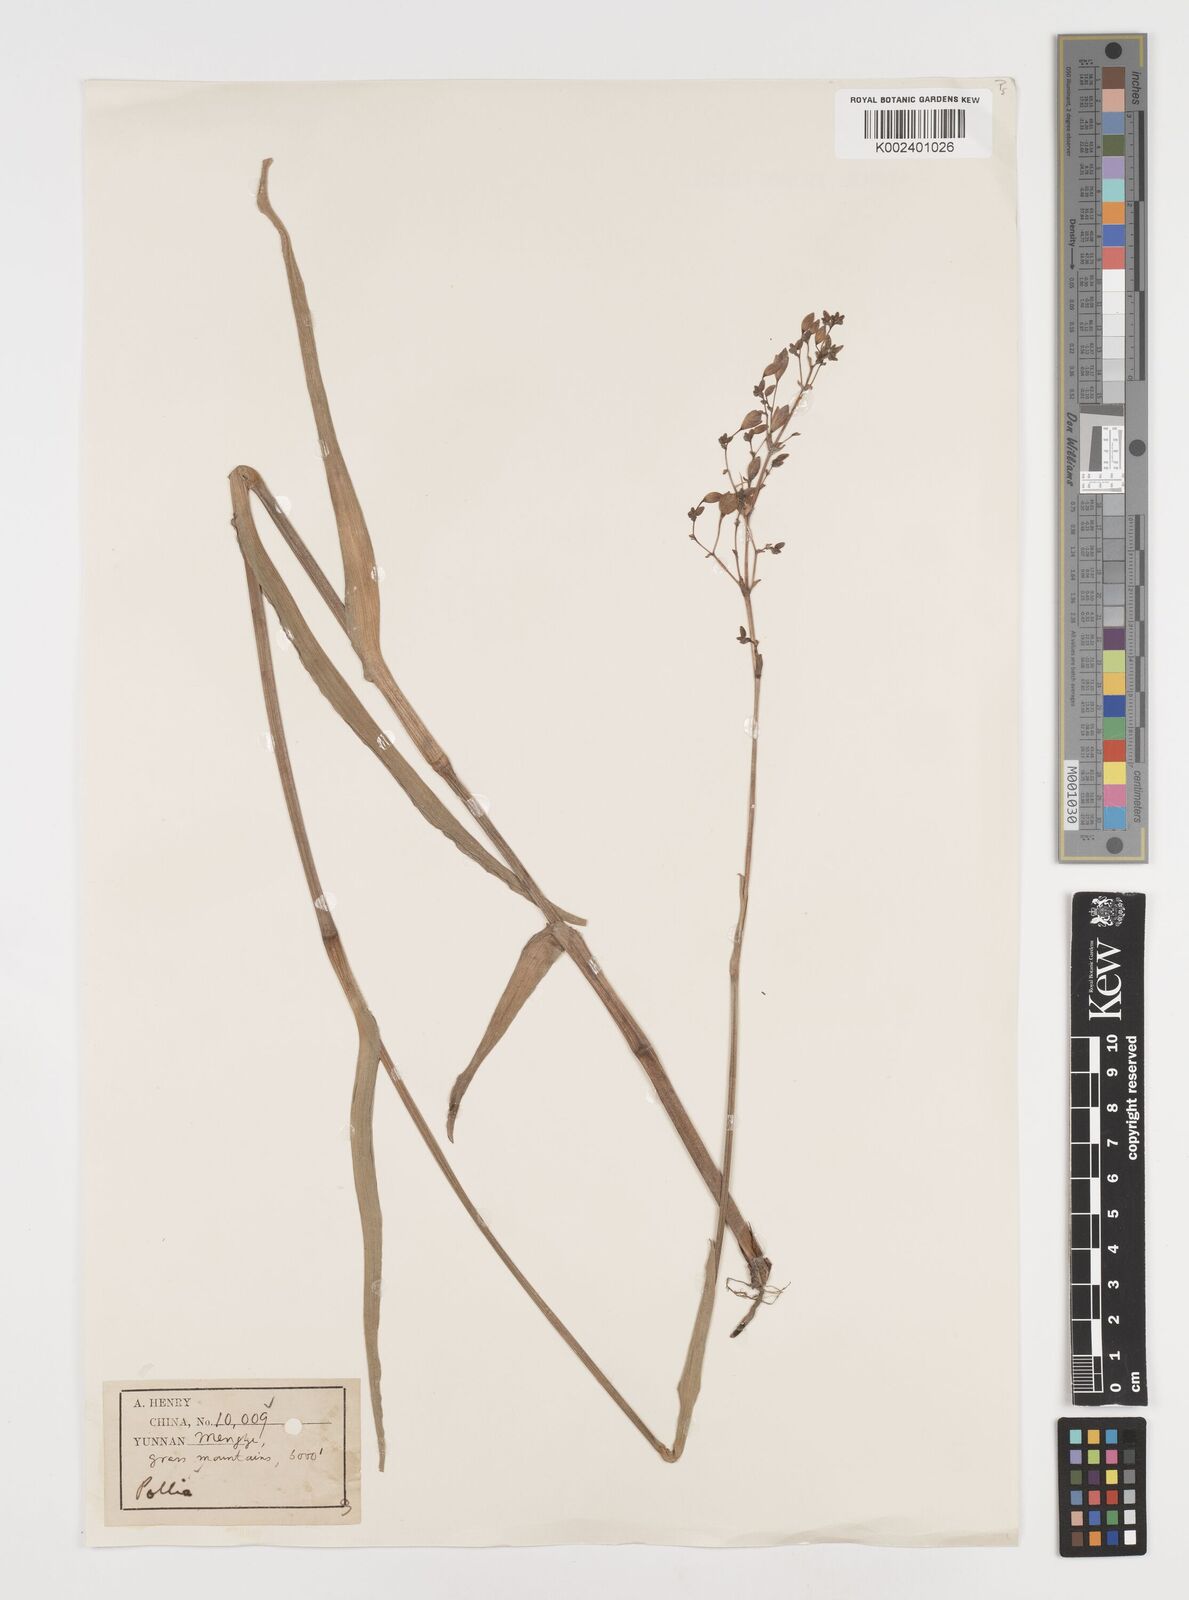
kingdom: Plantae
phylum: Tracheophyta
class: Liliopsida
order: Commelinales
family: Commelinaceae
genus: Pollia
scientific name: Pollia
